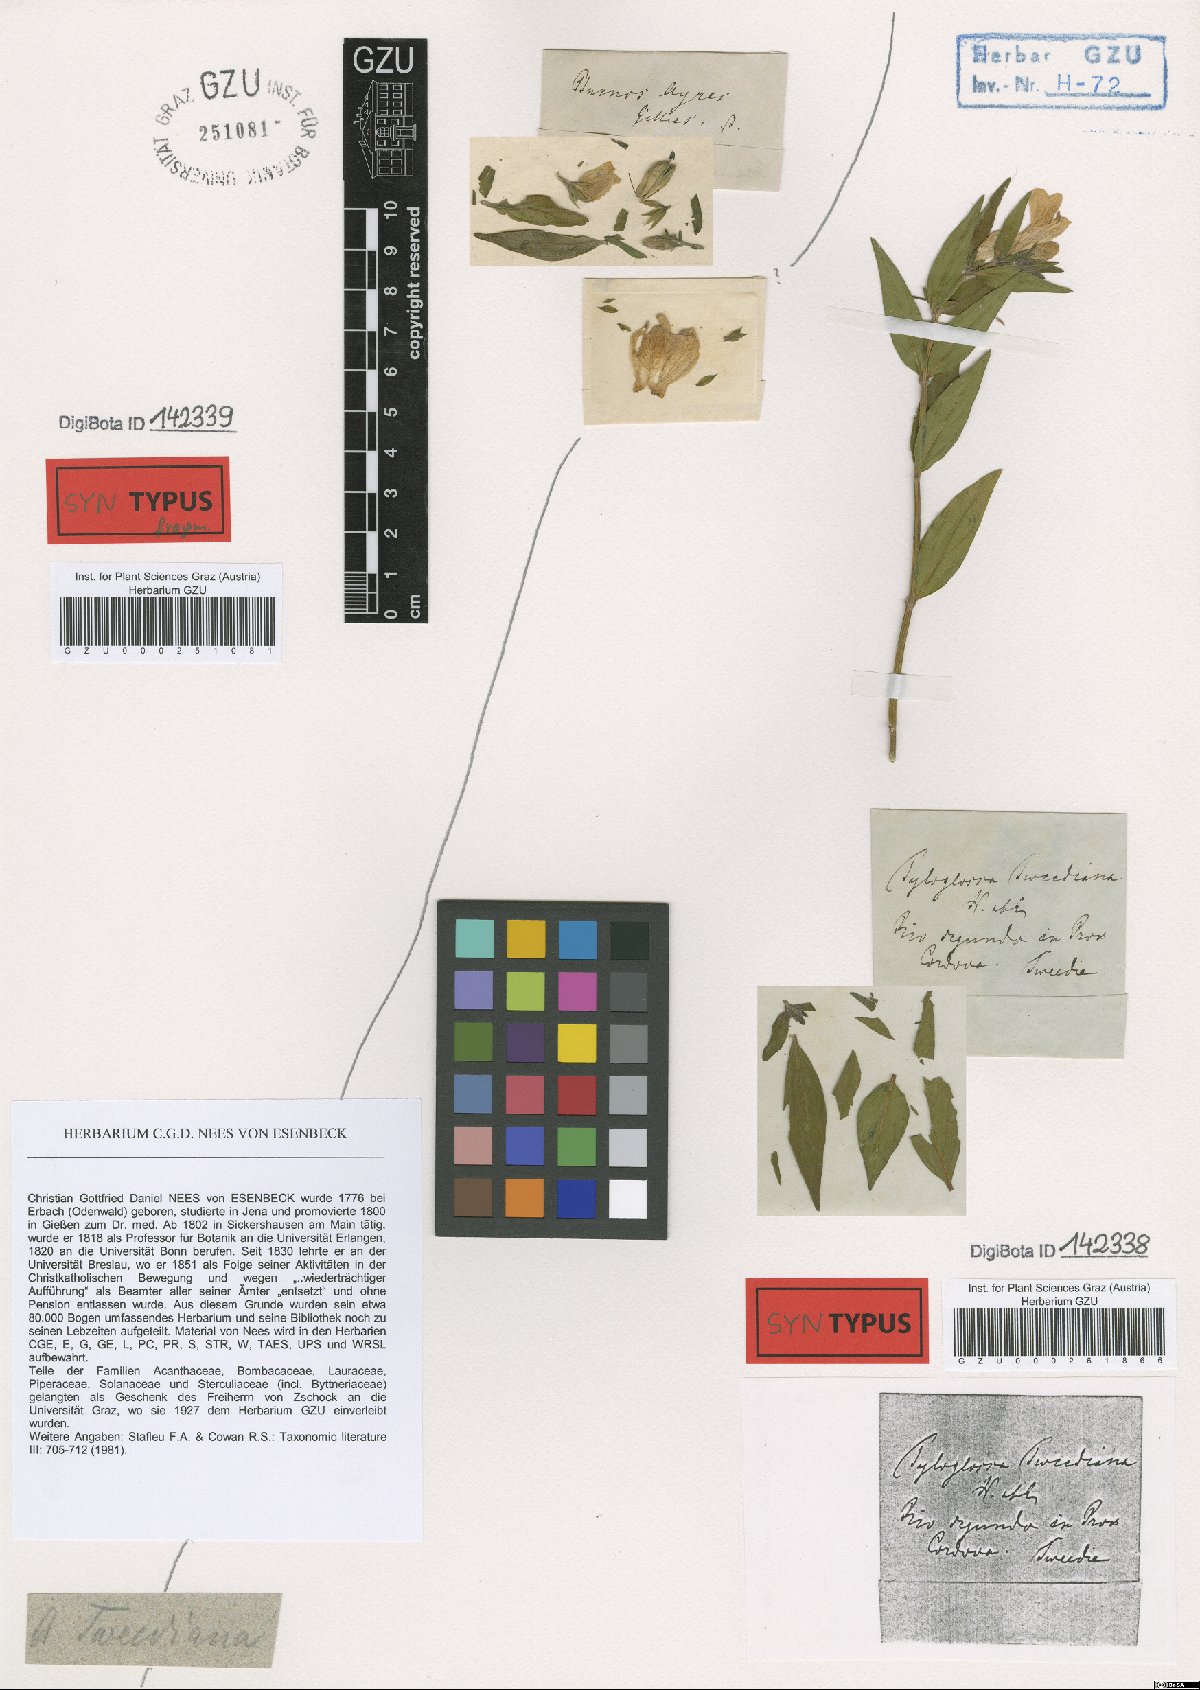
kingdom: Plantae
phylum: Tracheophyta
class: Magnoliopsida
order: Lamiales
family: Acanthaceae
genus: Poikilacanthus
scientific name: Poikilacanthus tweedianus
